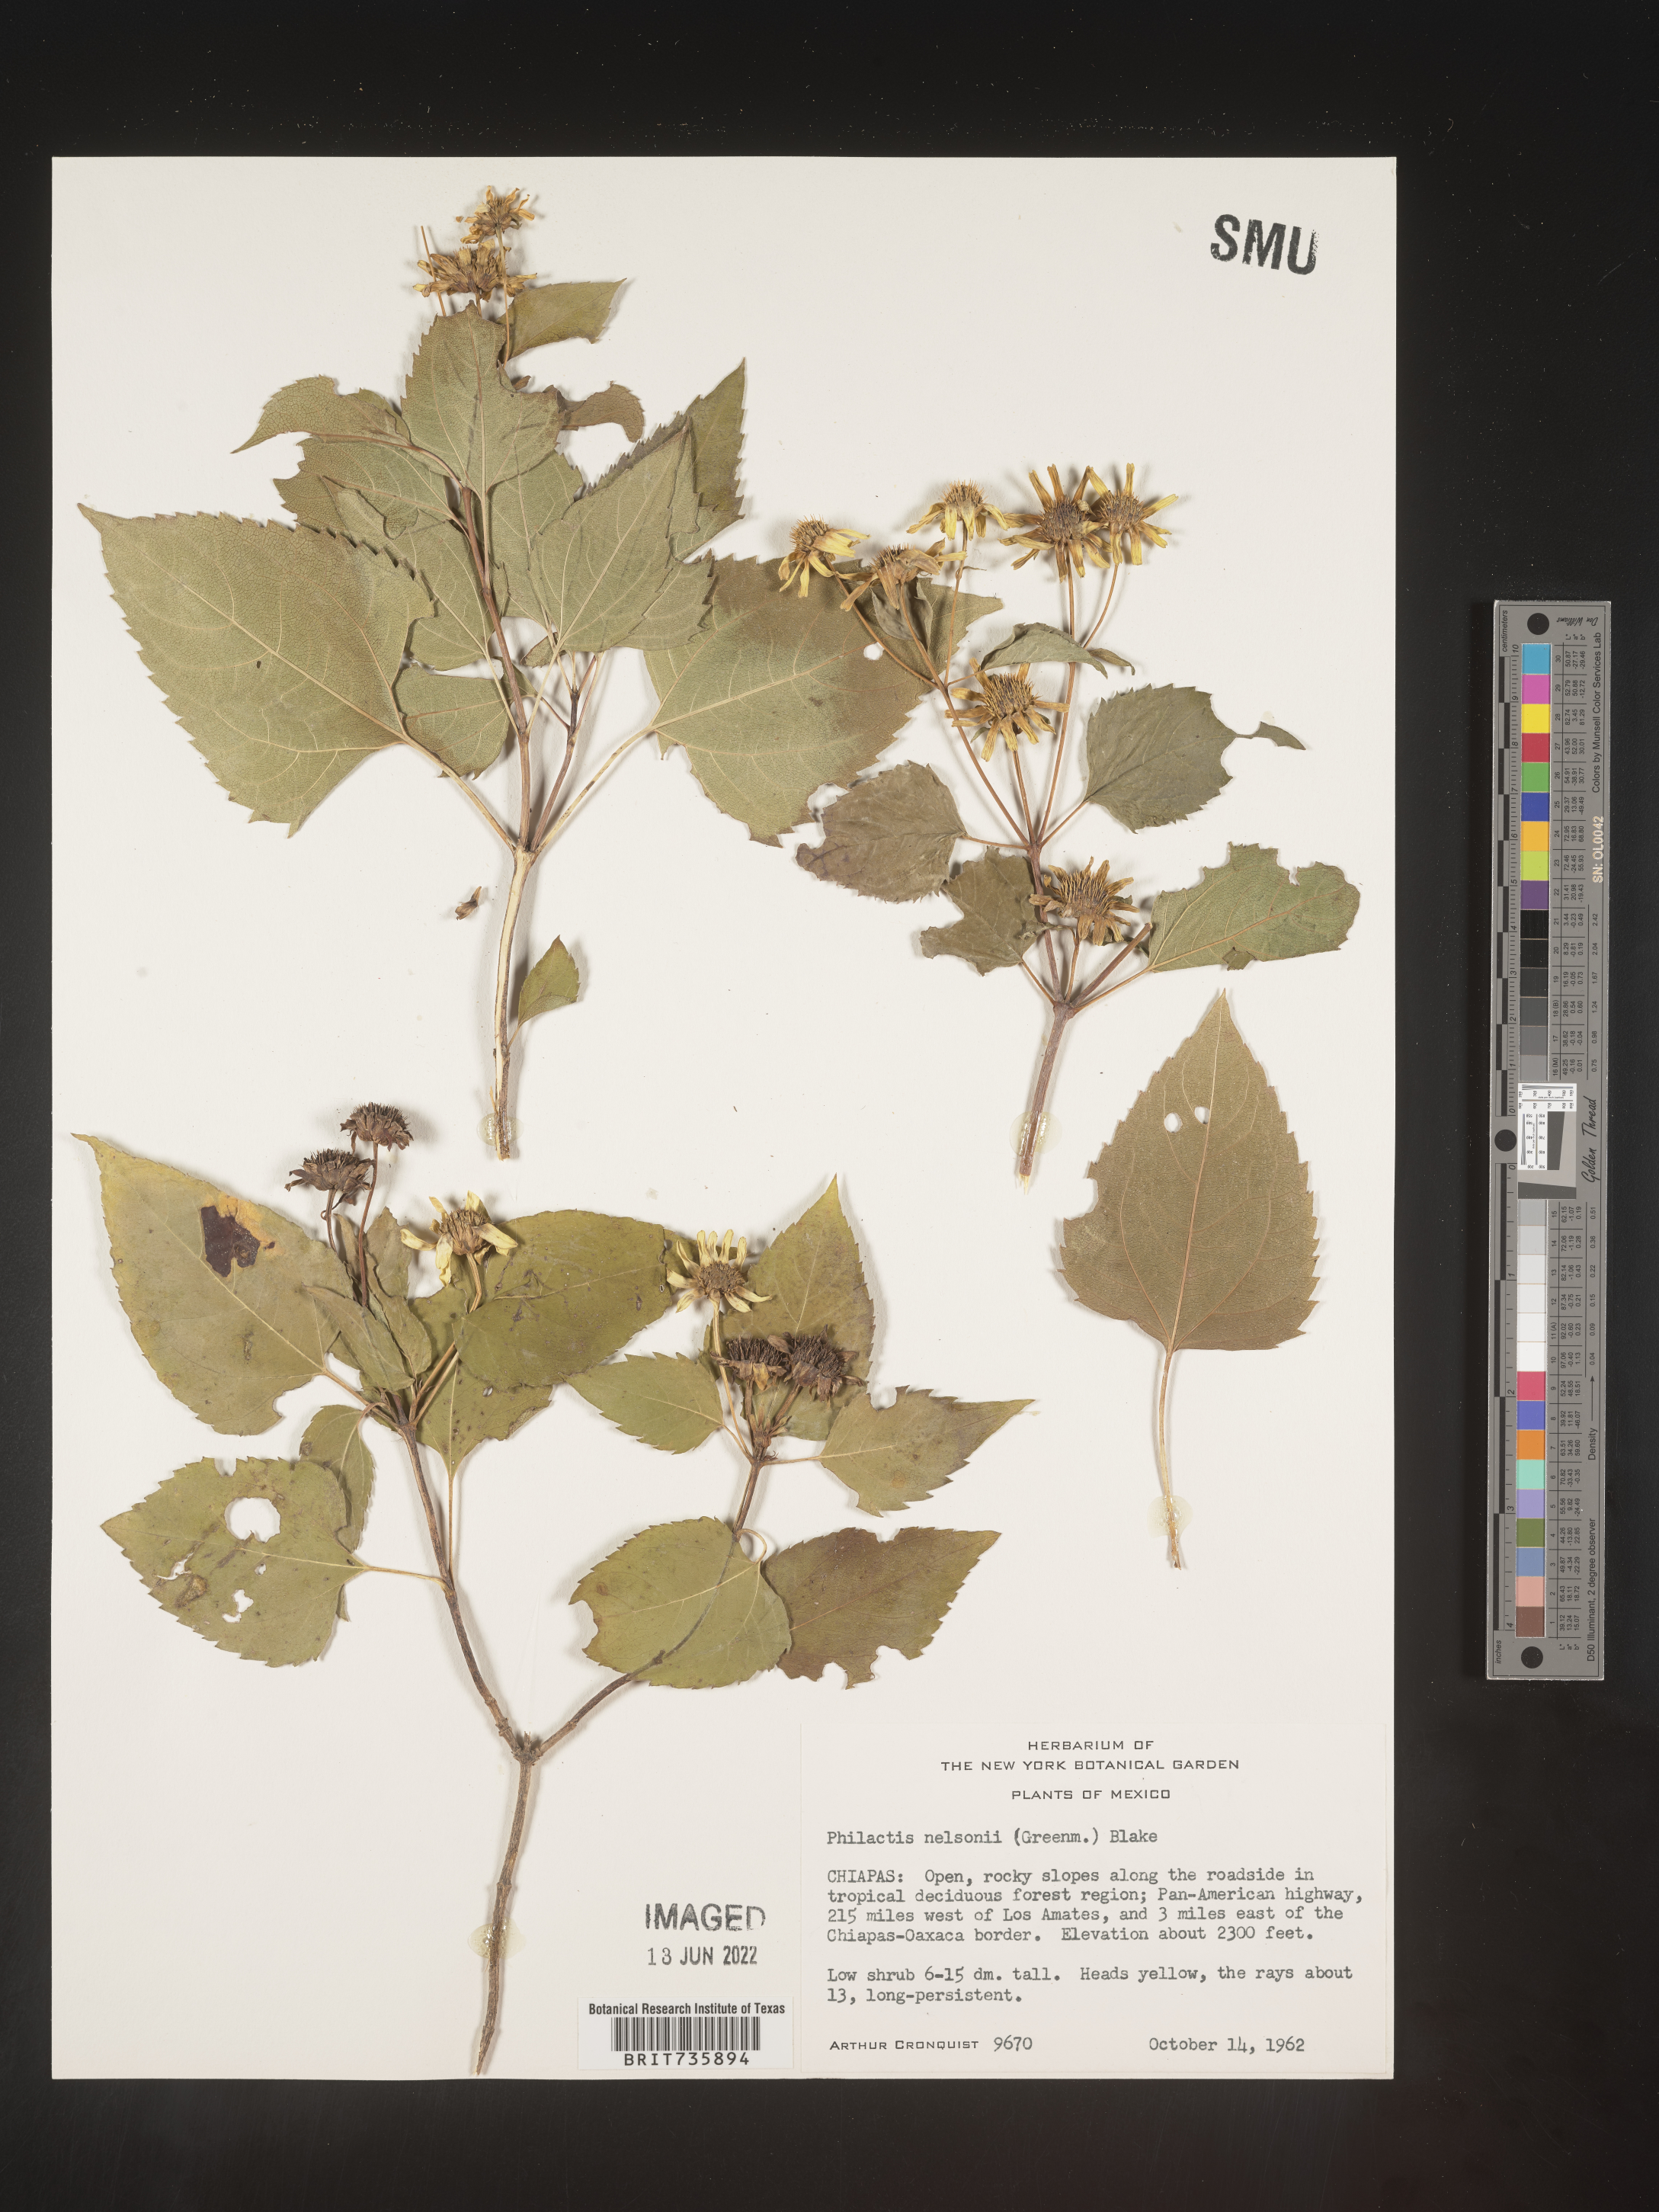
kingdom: Plantae
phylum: Tracheophyta
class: Magnoliopsida
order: Asterales
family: Asteraceae
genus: Philactis
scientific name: Philactis
